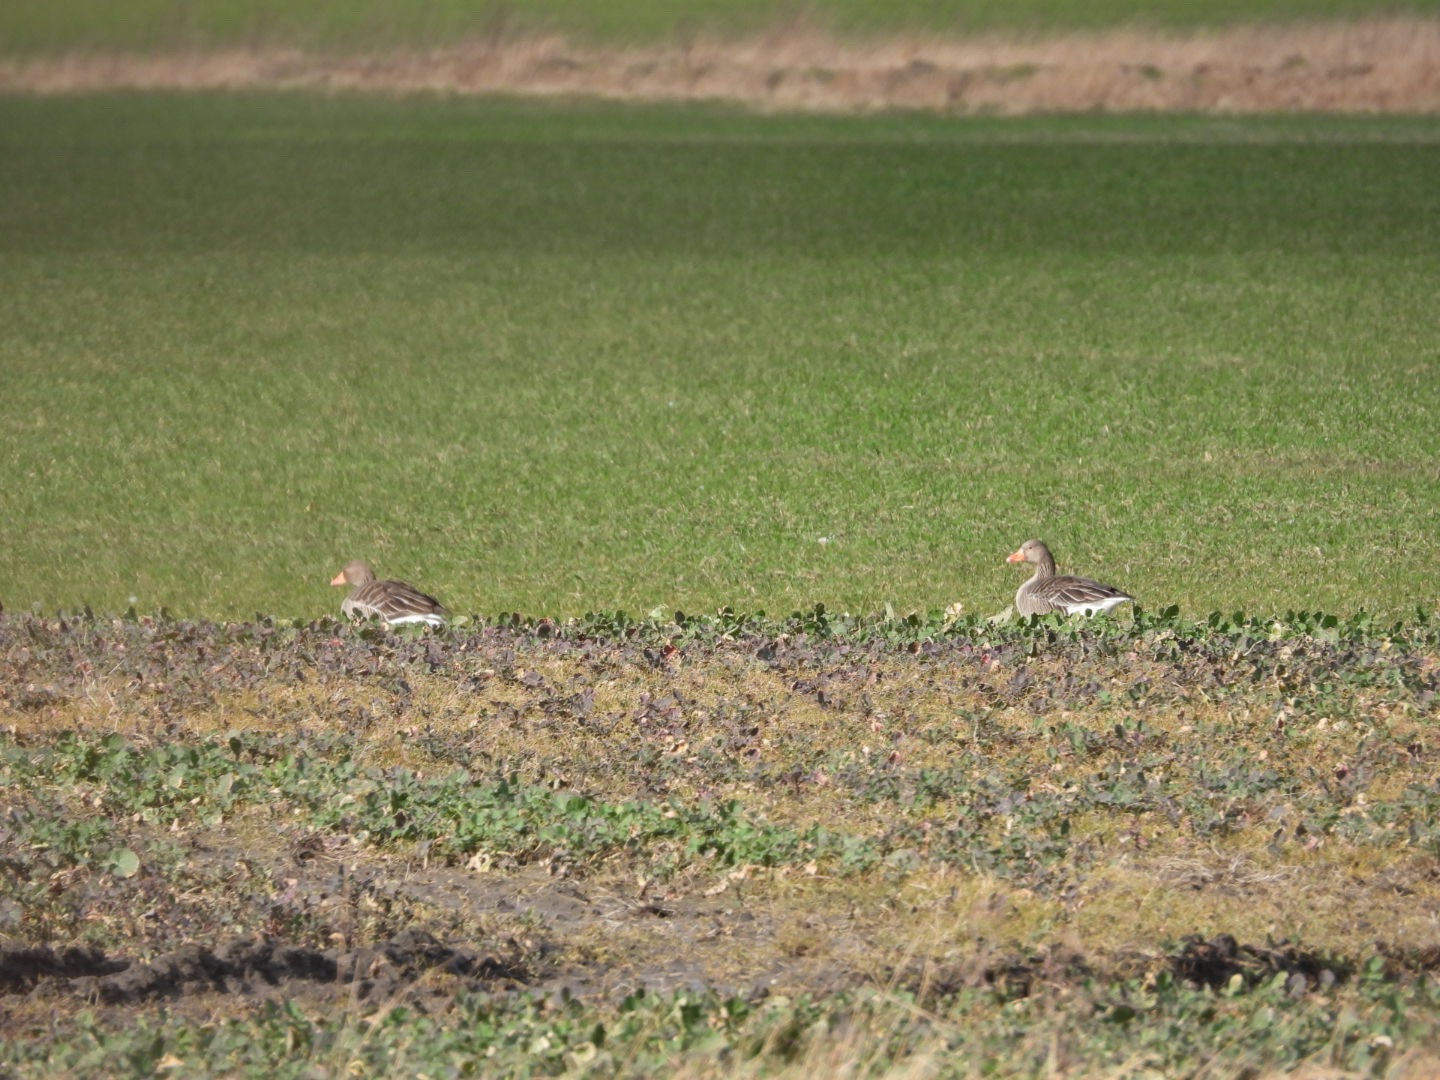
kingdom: Animalia
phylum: Chordata
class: Aves
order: Anseriformes
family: Anatidae
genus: Anser
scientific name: Anser anser
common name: Grågås
